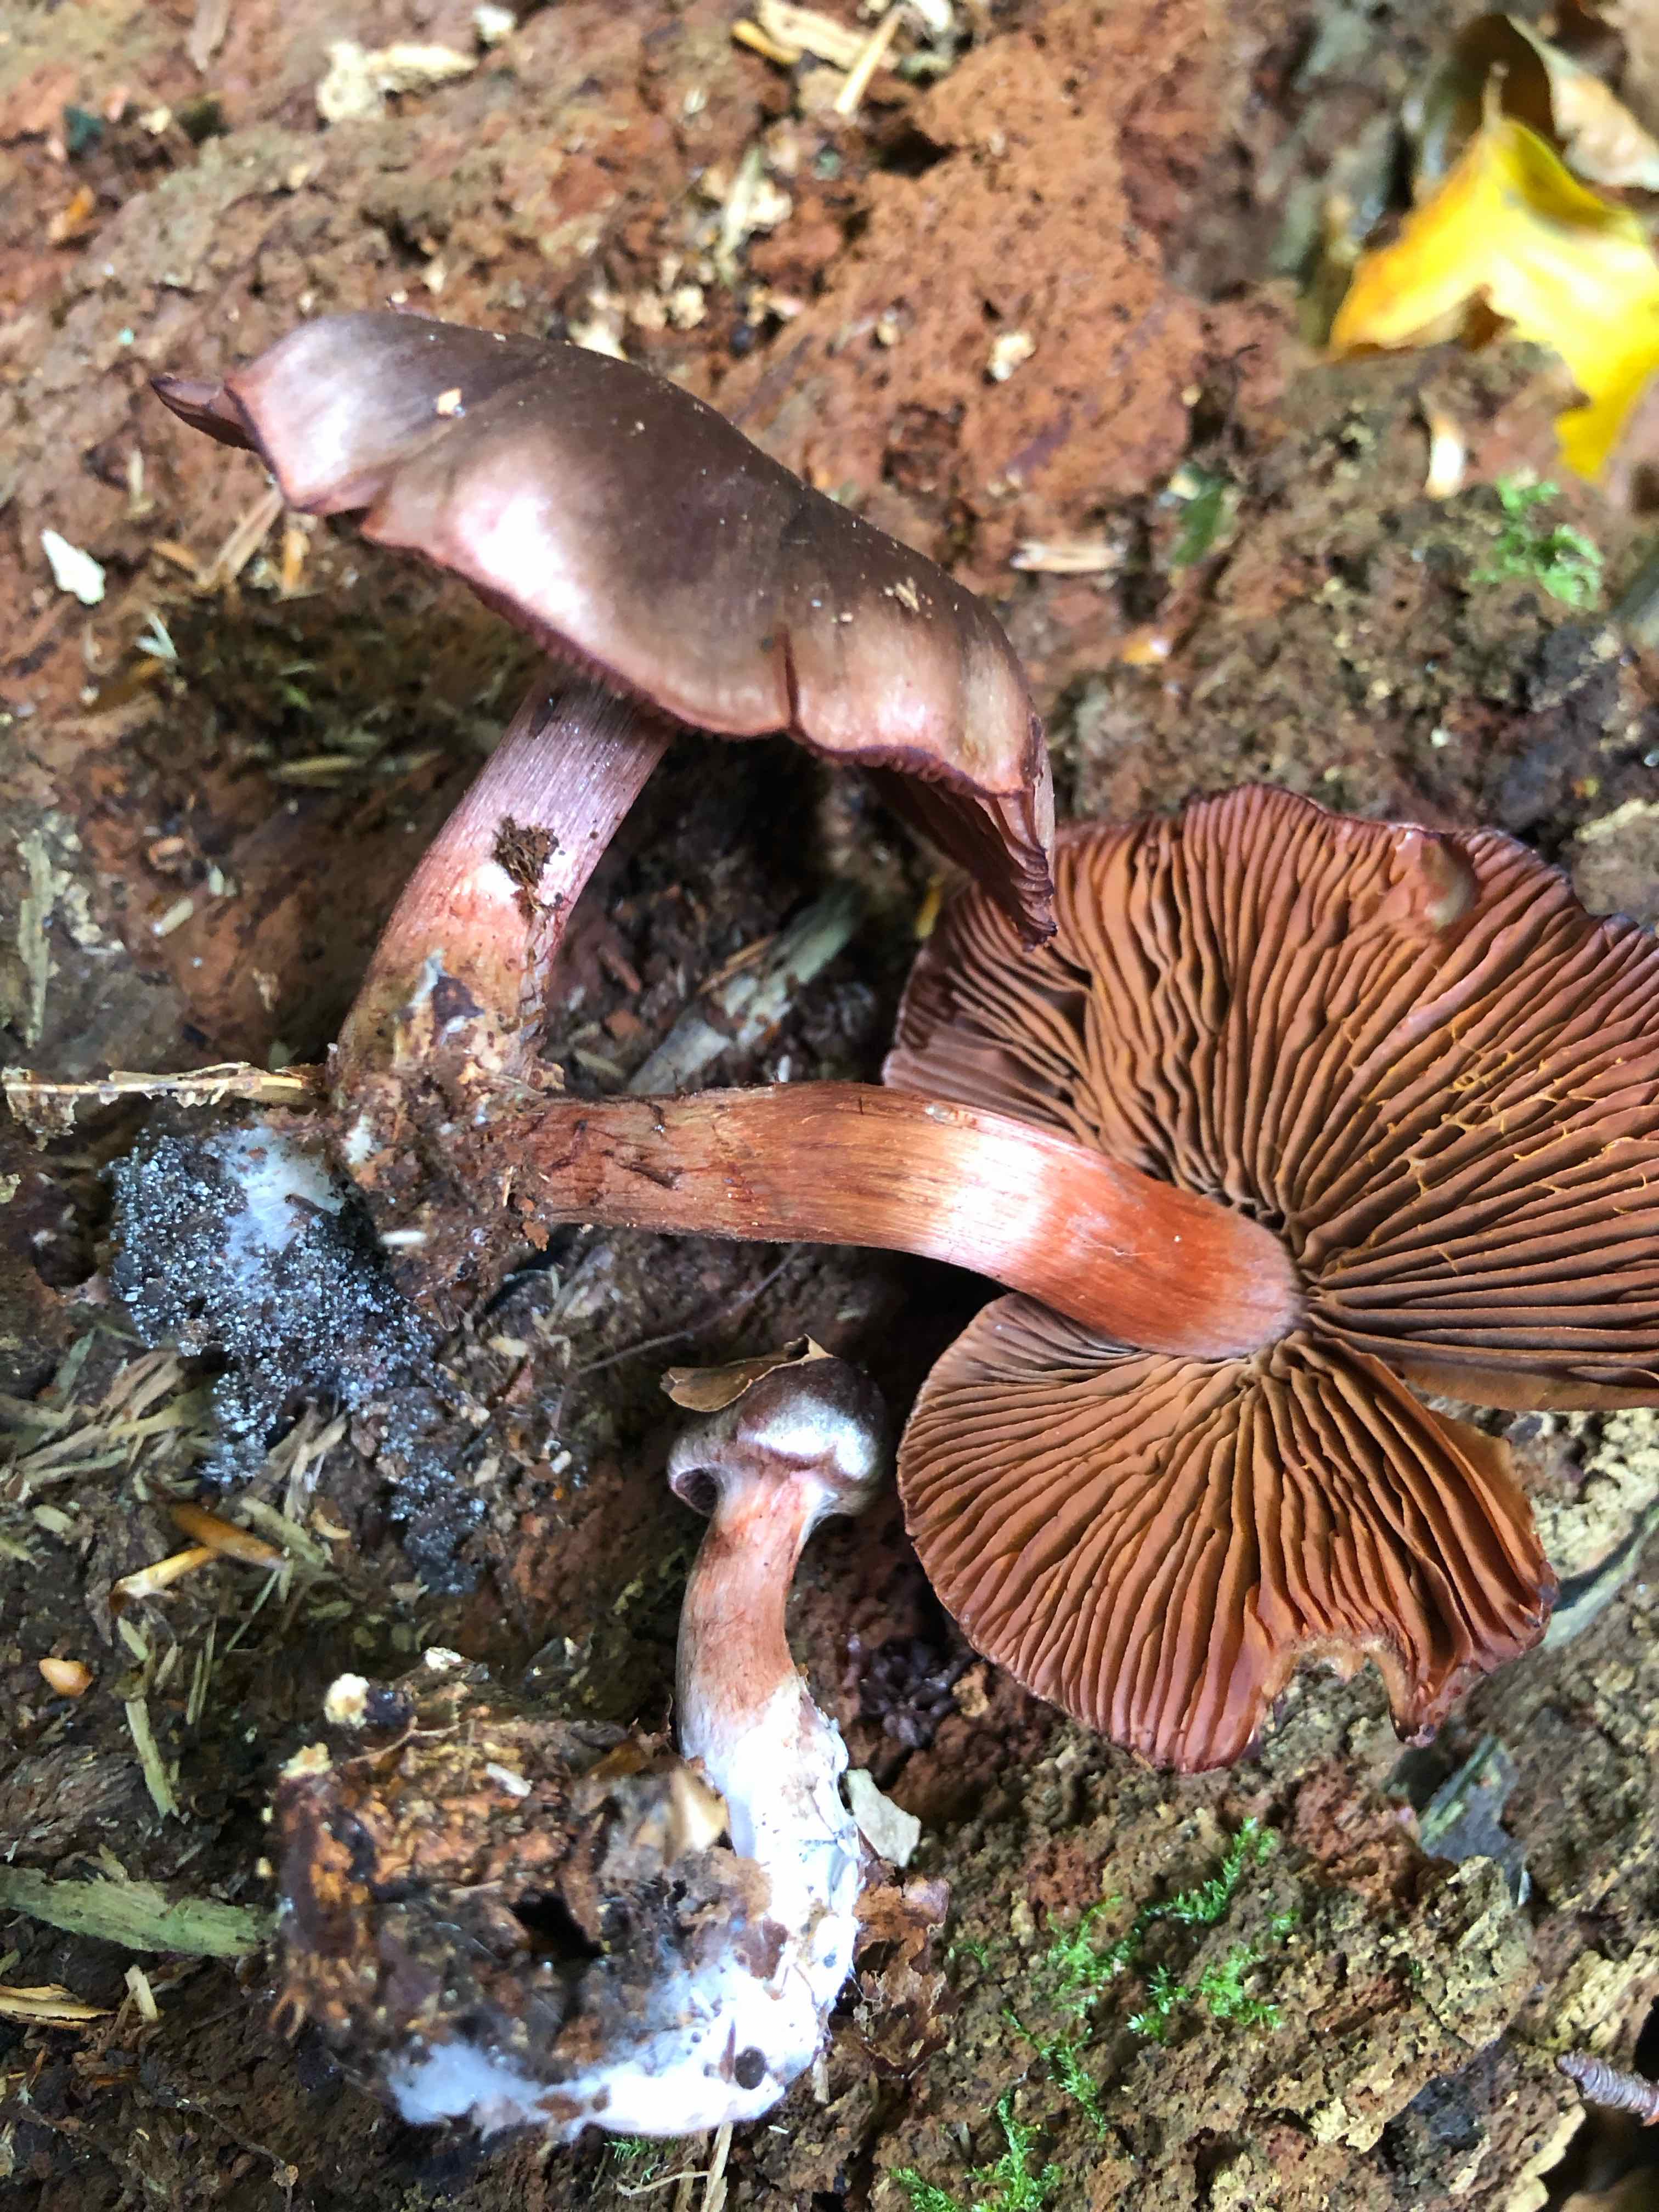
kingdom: Fungi
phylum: Basidiomycota
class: Agaricomycetes
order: Agaricales
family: Cortinariaceae
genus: Cortinarius
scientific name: Cortinarius
